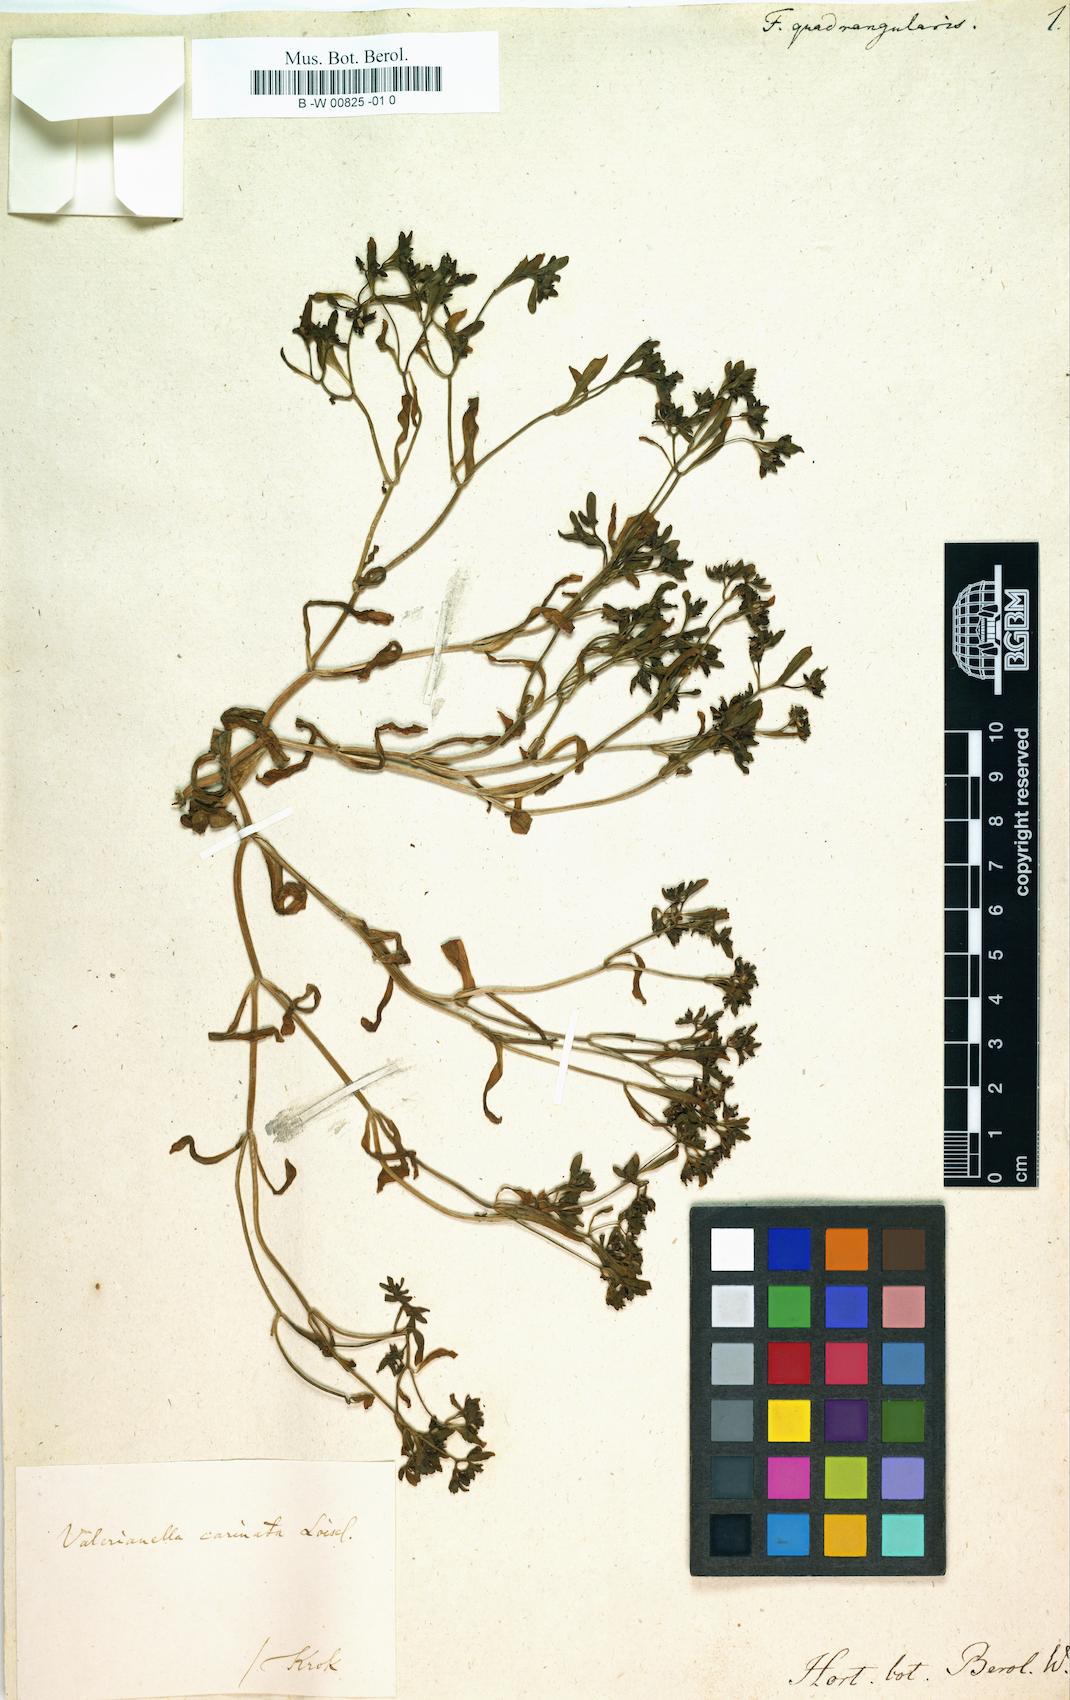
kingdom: Plantae
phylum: Tracheophyta
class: Magnoliopsida
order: Dipsacales
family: Caprifoliaceae
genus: Valerianella
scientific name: Valerianella carinata
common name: Keeled-fruited cornsalad
